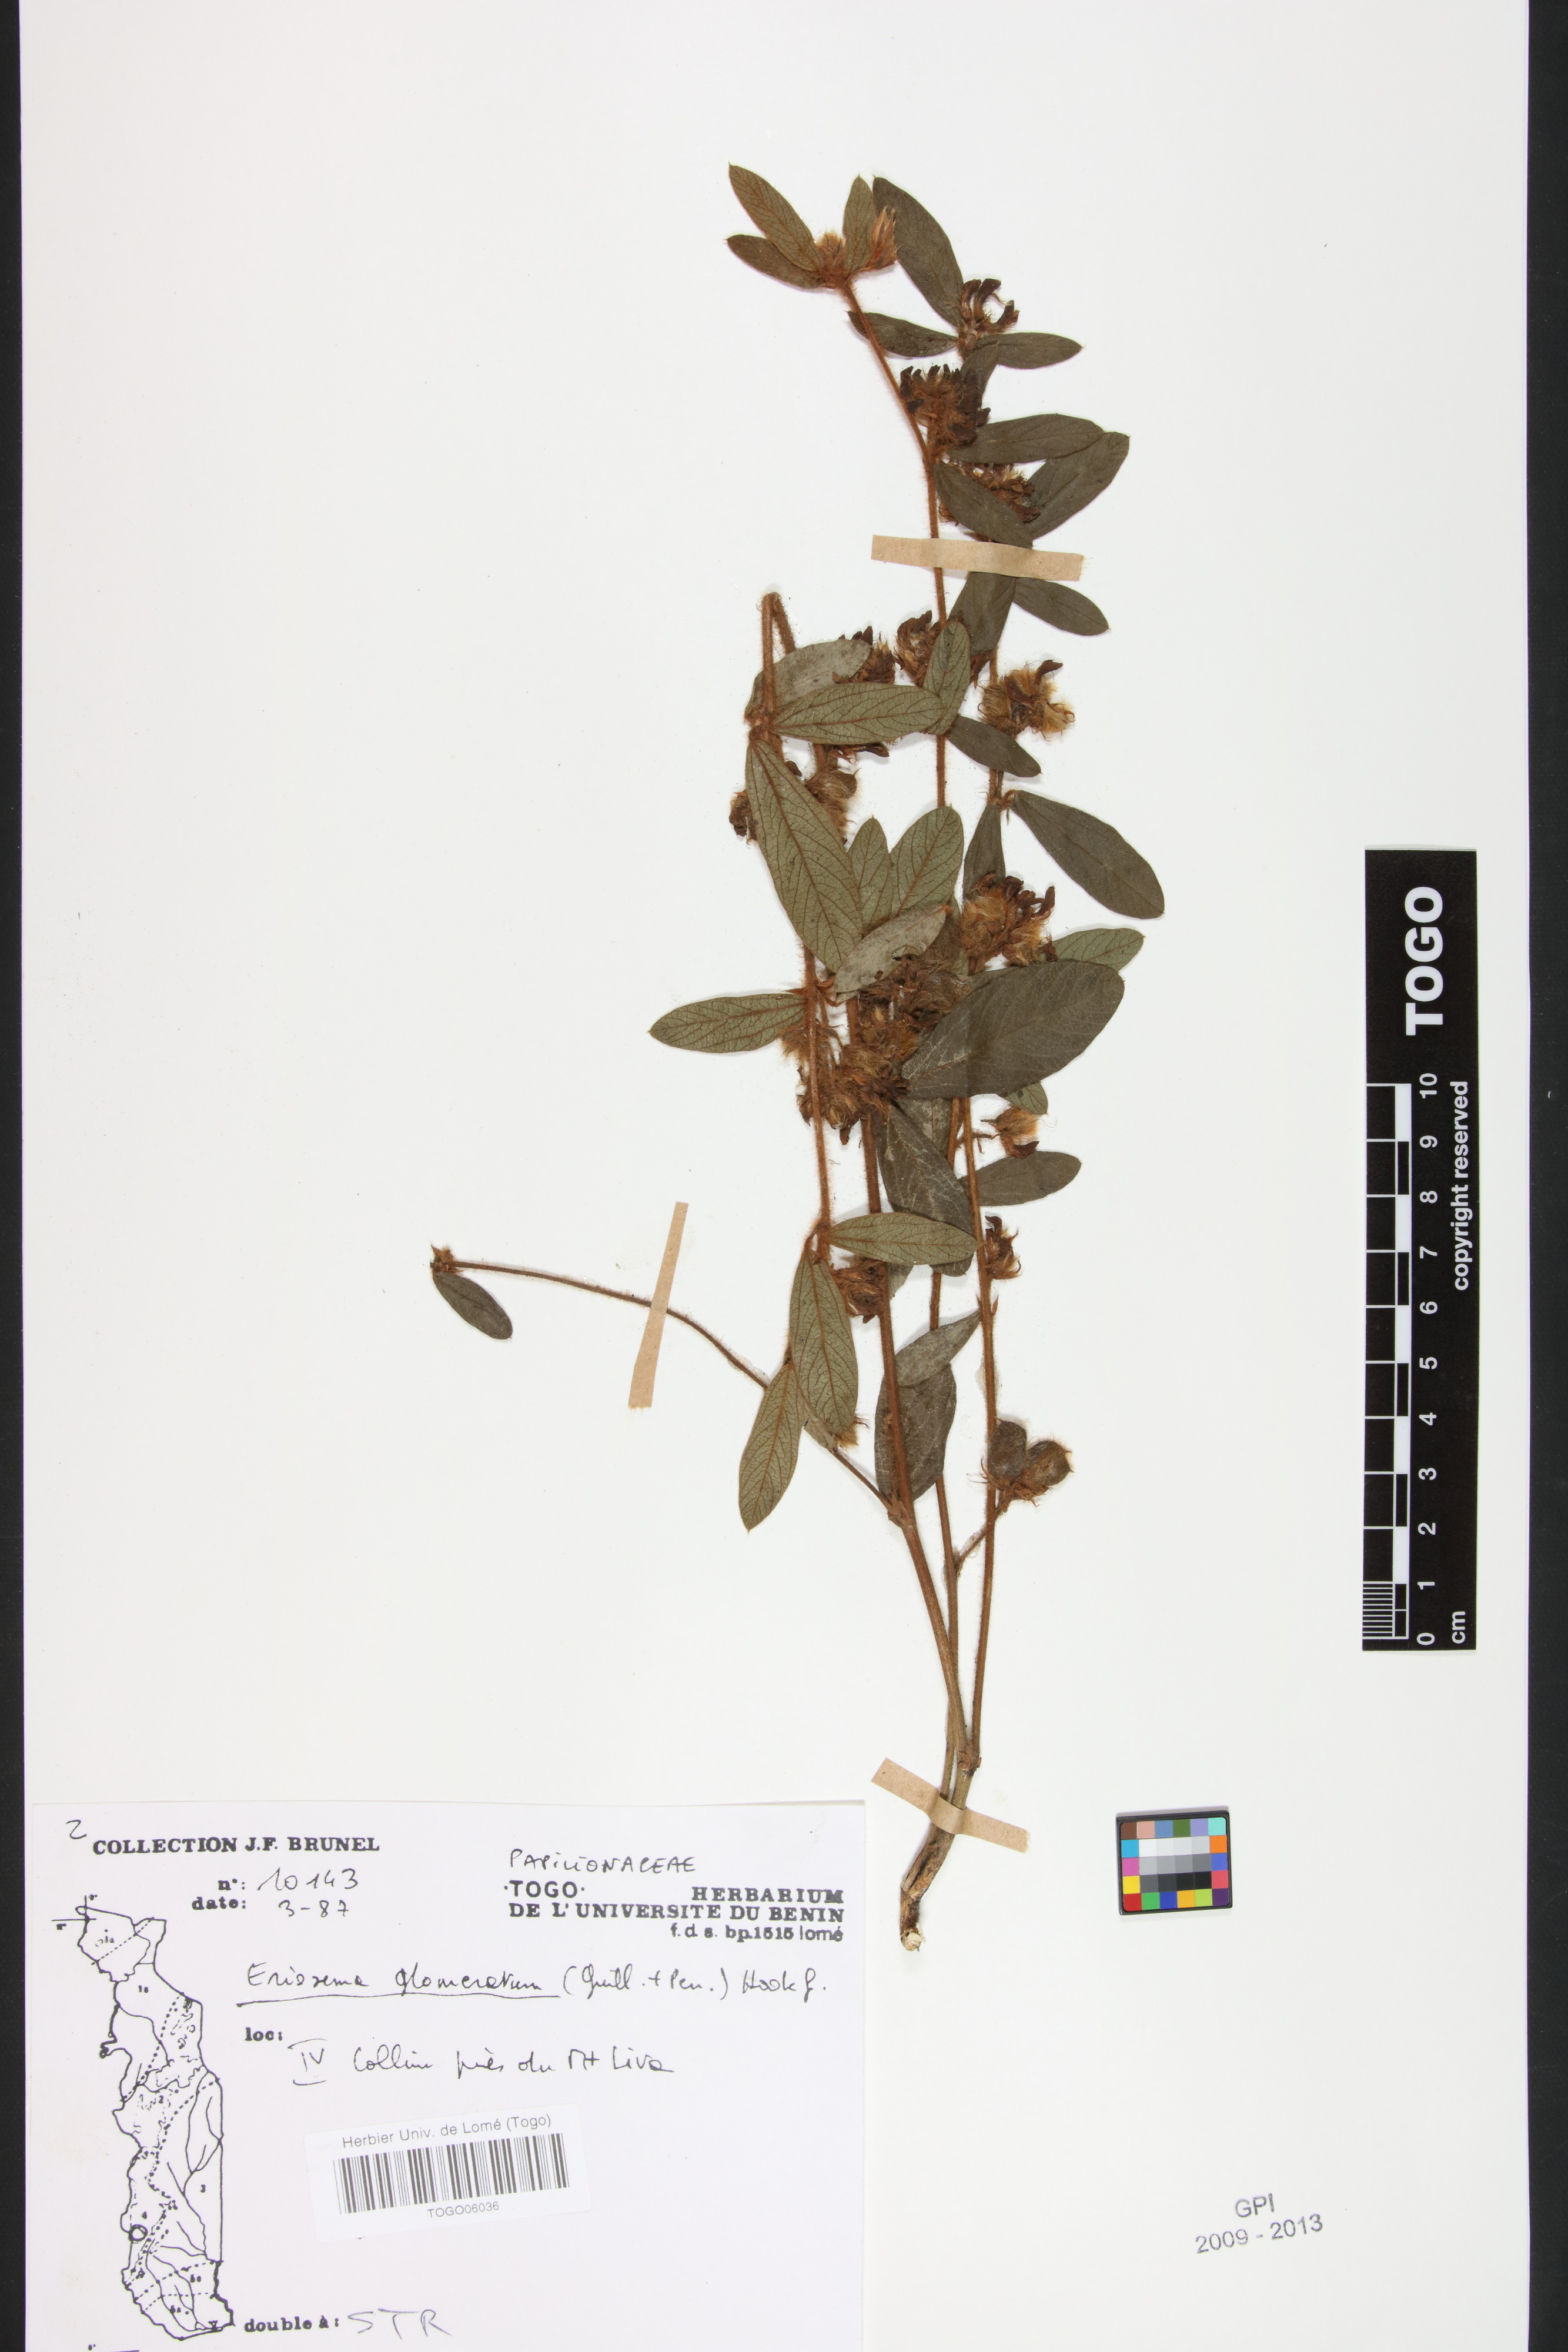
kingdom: Plantae
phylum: Tracheophyta
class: Magnoliopsida
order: Fabales
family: Fabaceae
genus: Eriosema
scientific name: Eriosema glomeratum
